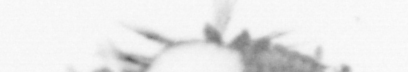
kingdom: Animalia
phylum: Annelida
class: Polychaeta
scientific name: Polychaeta
